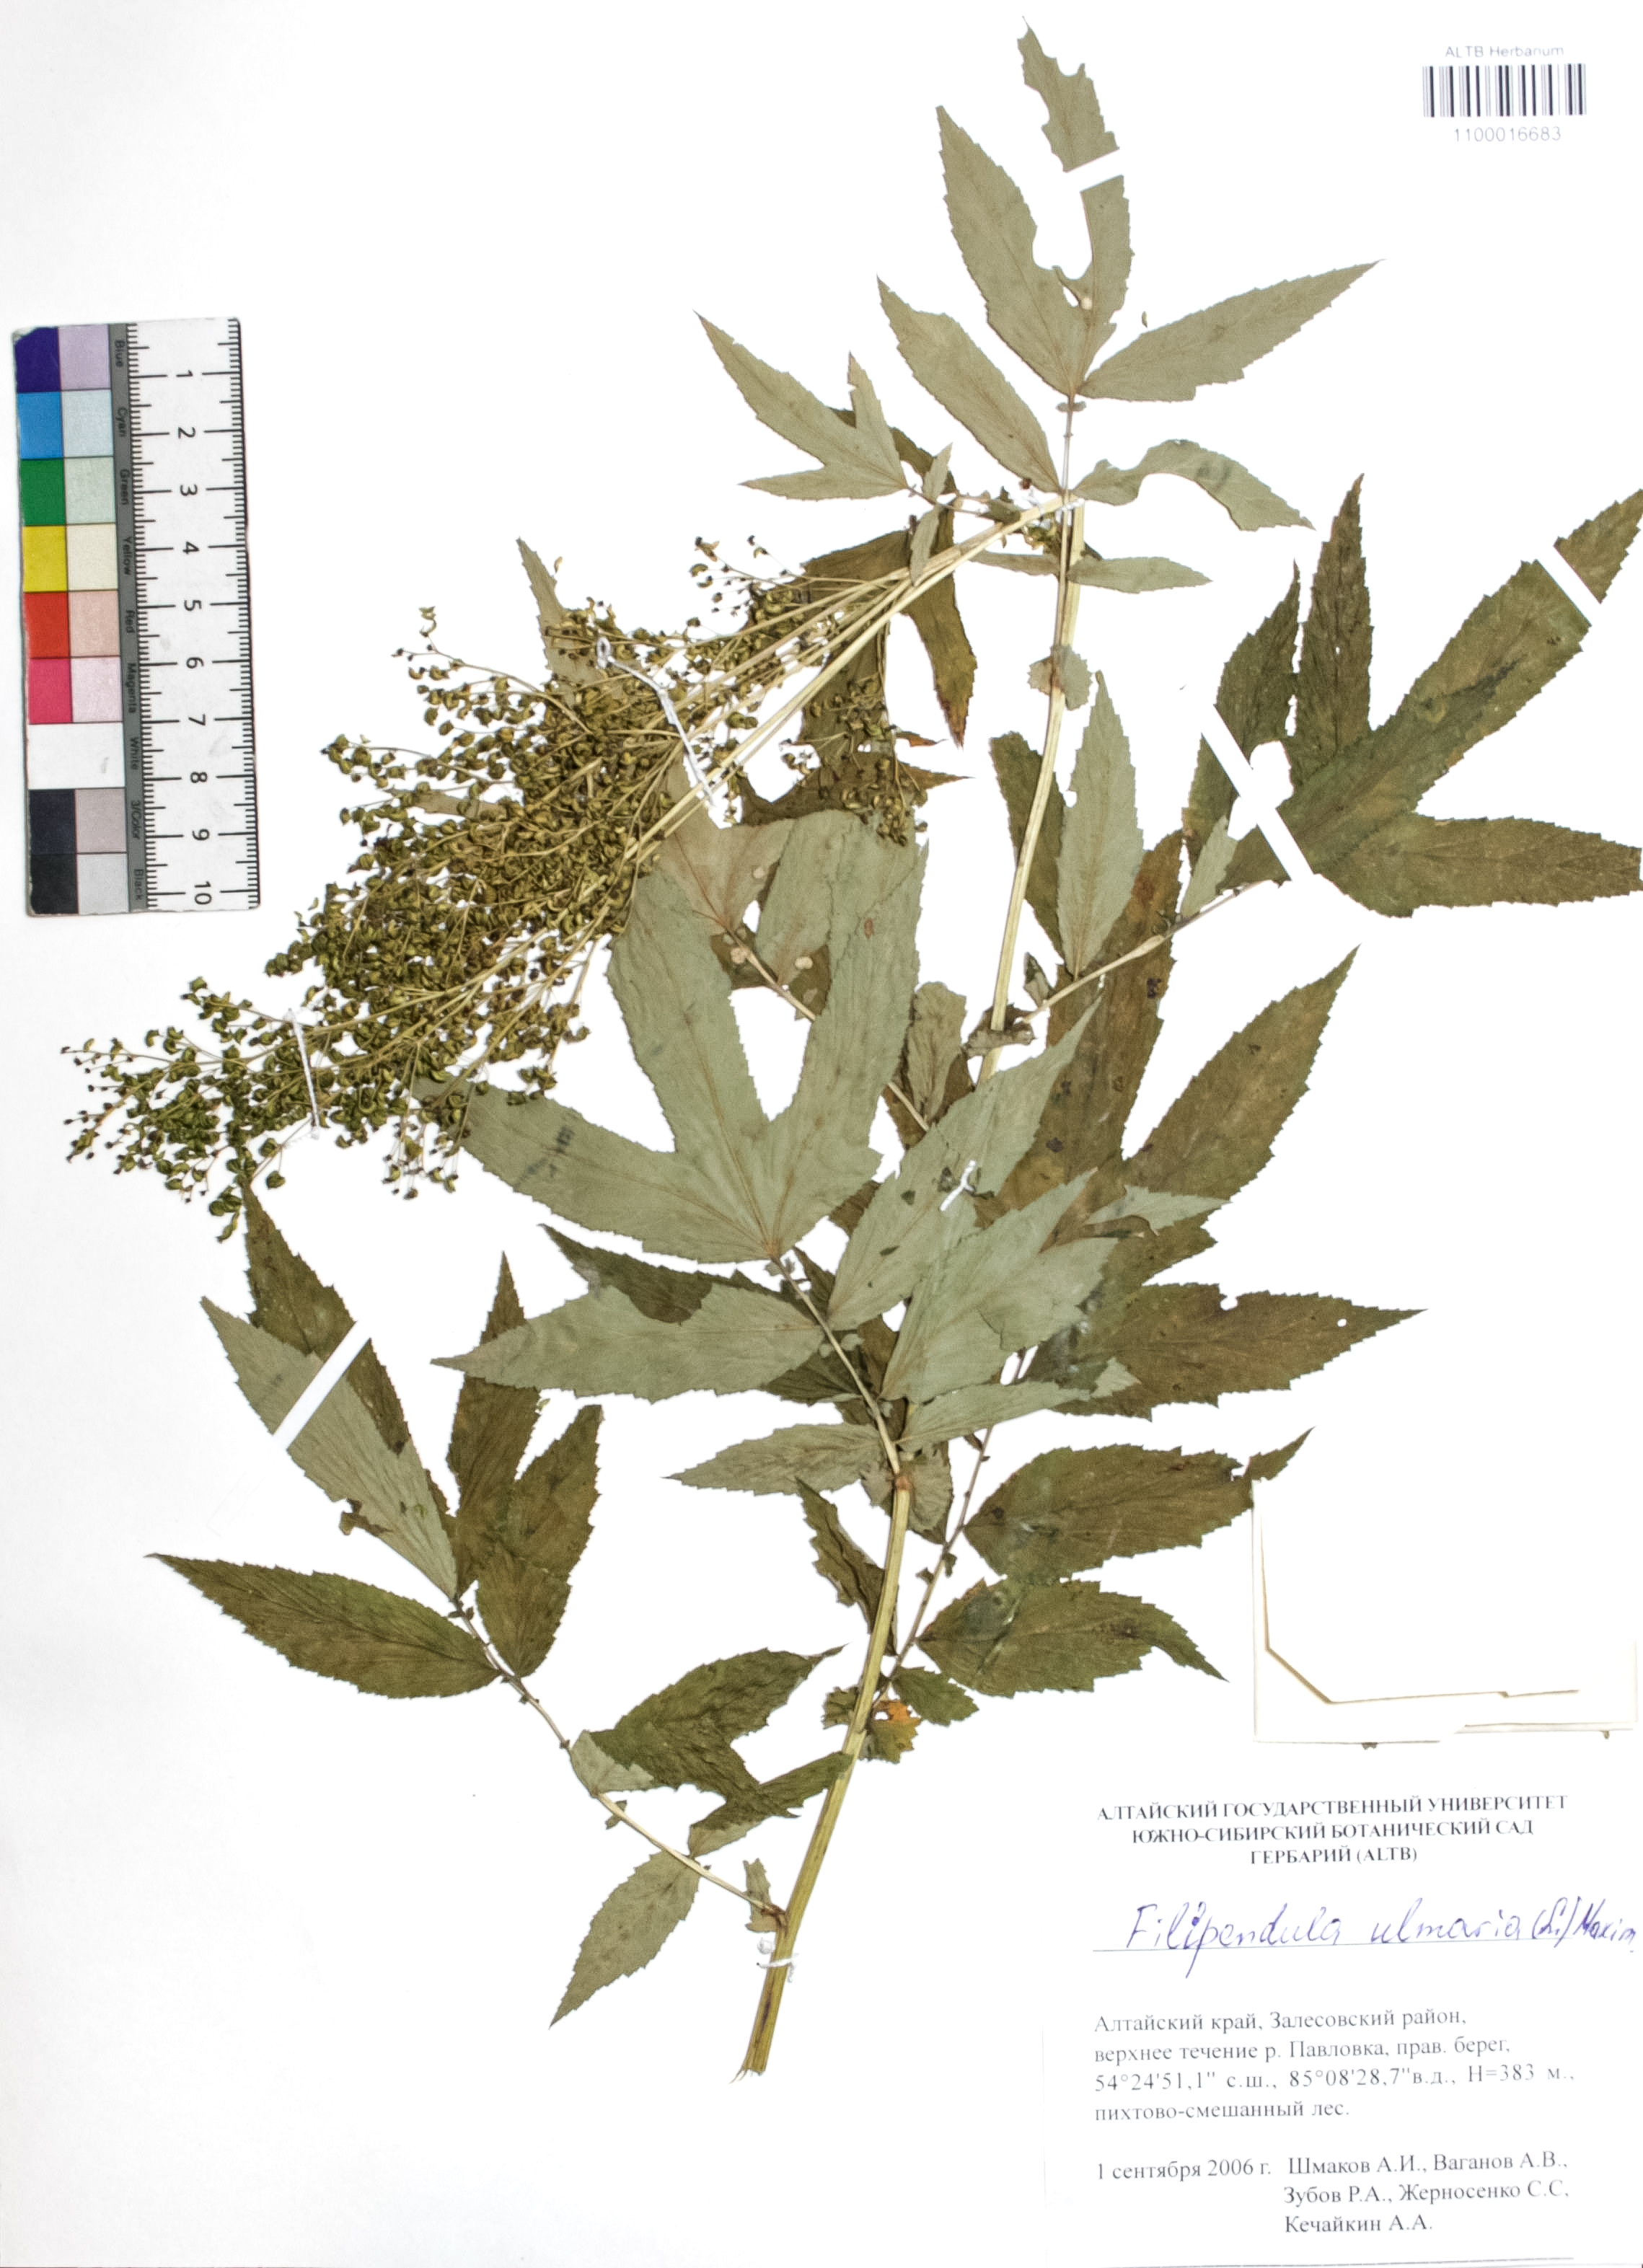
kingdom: Plantae
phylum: Tracheophyta
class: Magnoliopsida
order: Rosales
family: Rosaceae
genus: Filipendula
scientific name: Filipendula ulmaria
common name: Meadowsweet
